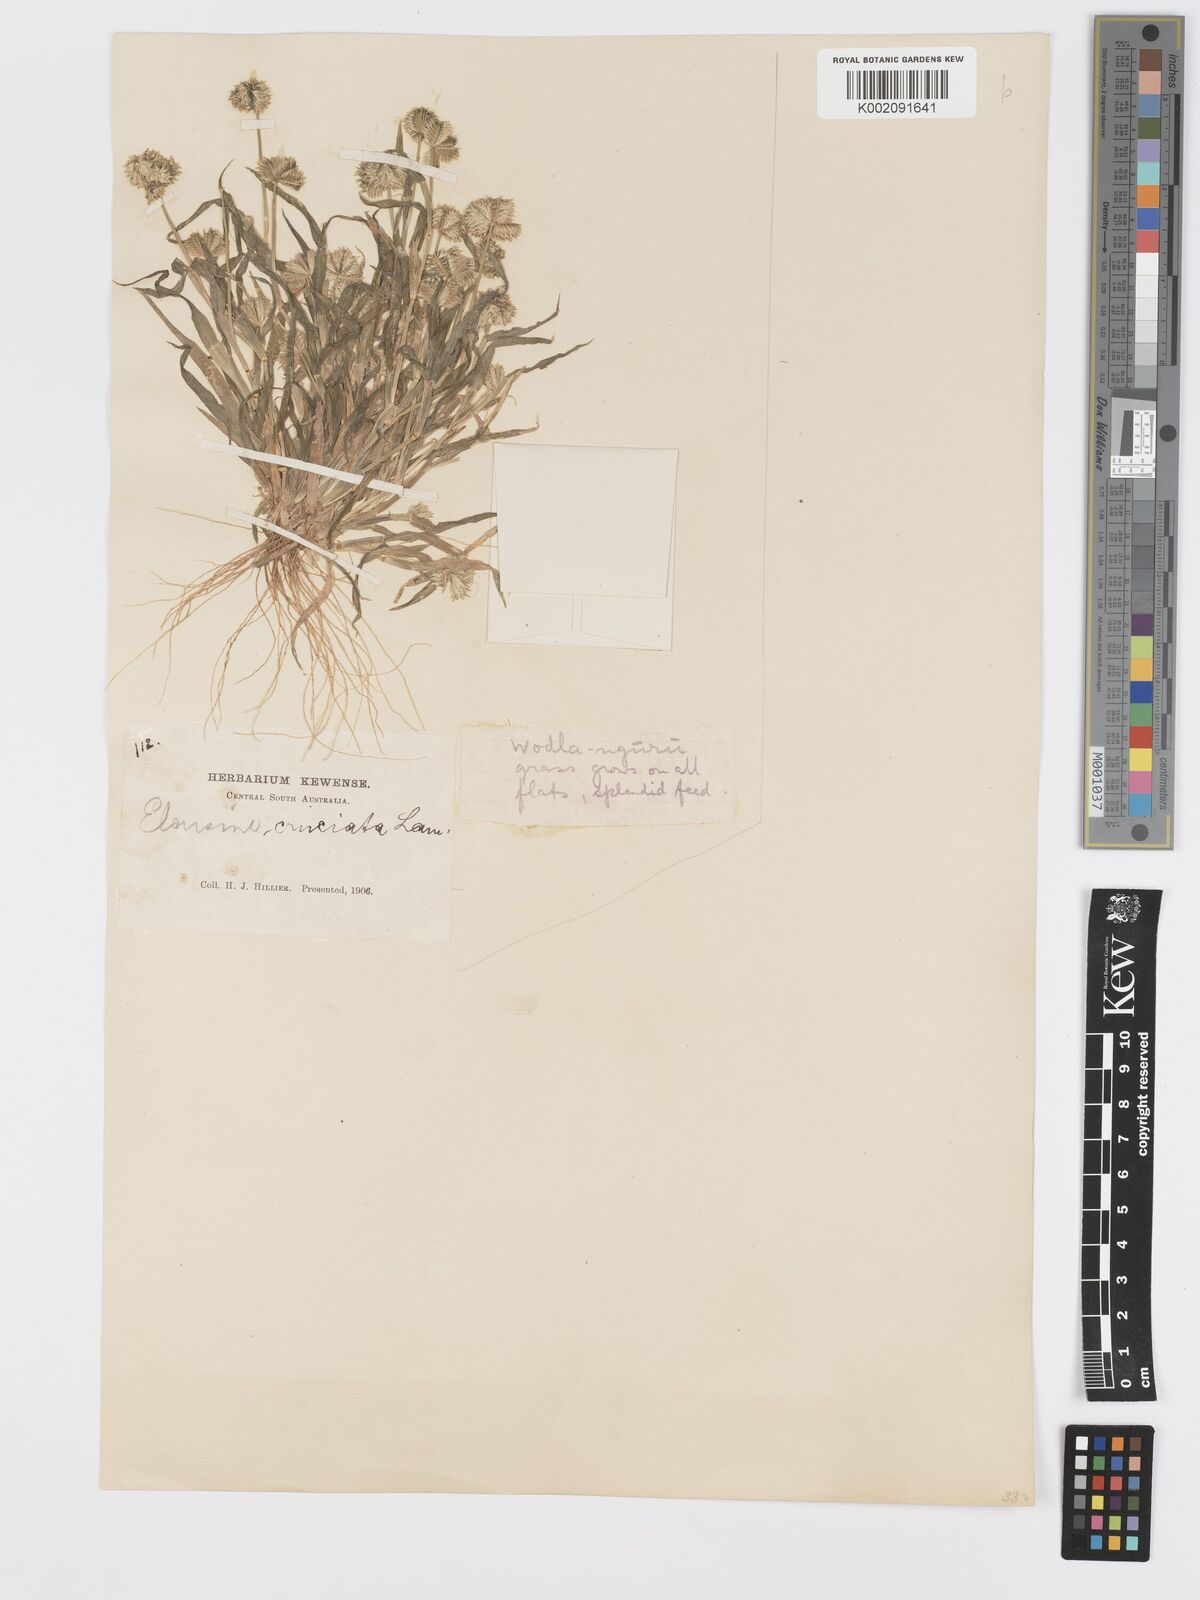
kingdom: Plantae
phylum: Tracheophyta
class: Liliopsida
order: Poales
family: Poaceae
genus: Dactyloctenium
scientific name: Dactyloctenium radulans
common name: Button-grass
